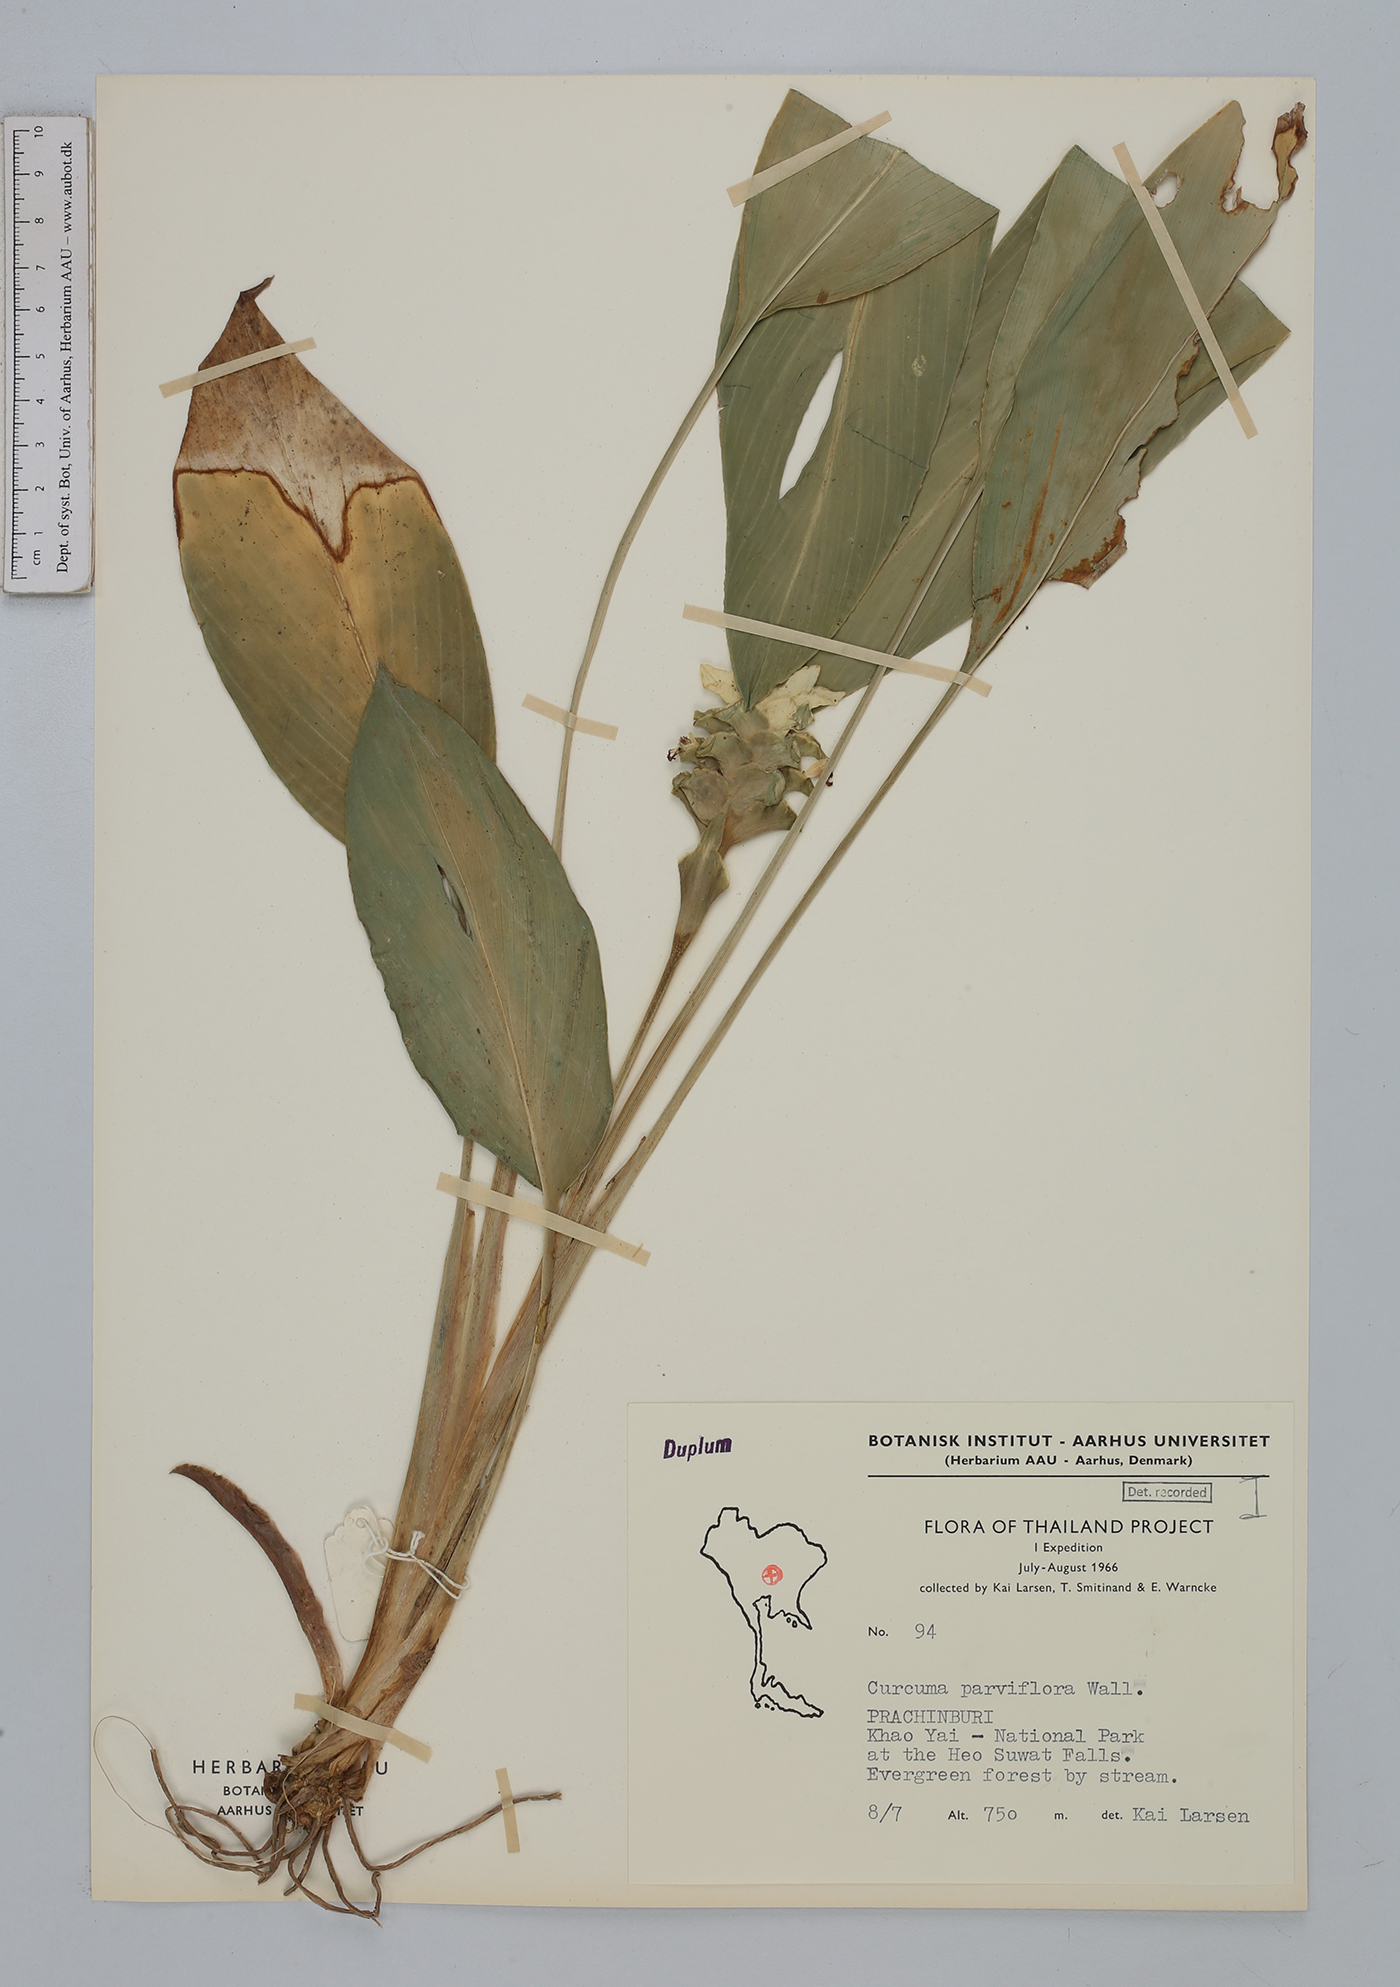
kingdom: Plantae
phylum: Tracheophyta
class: Liliopsida
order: Zingiberales
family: Zingiberaceae
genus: Curcuma
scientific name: Curcuma parviflora
